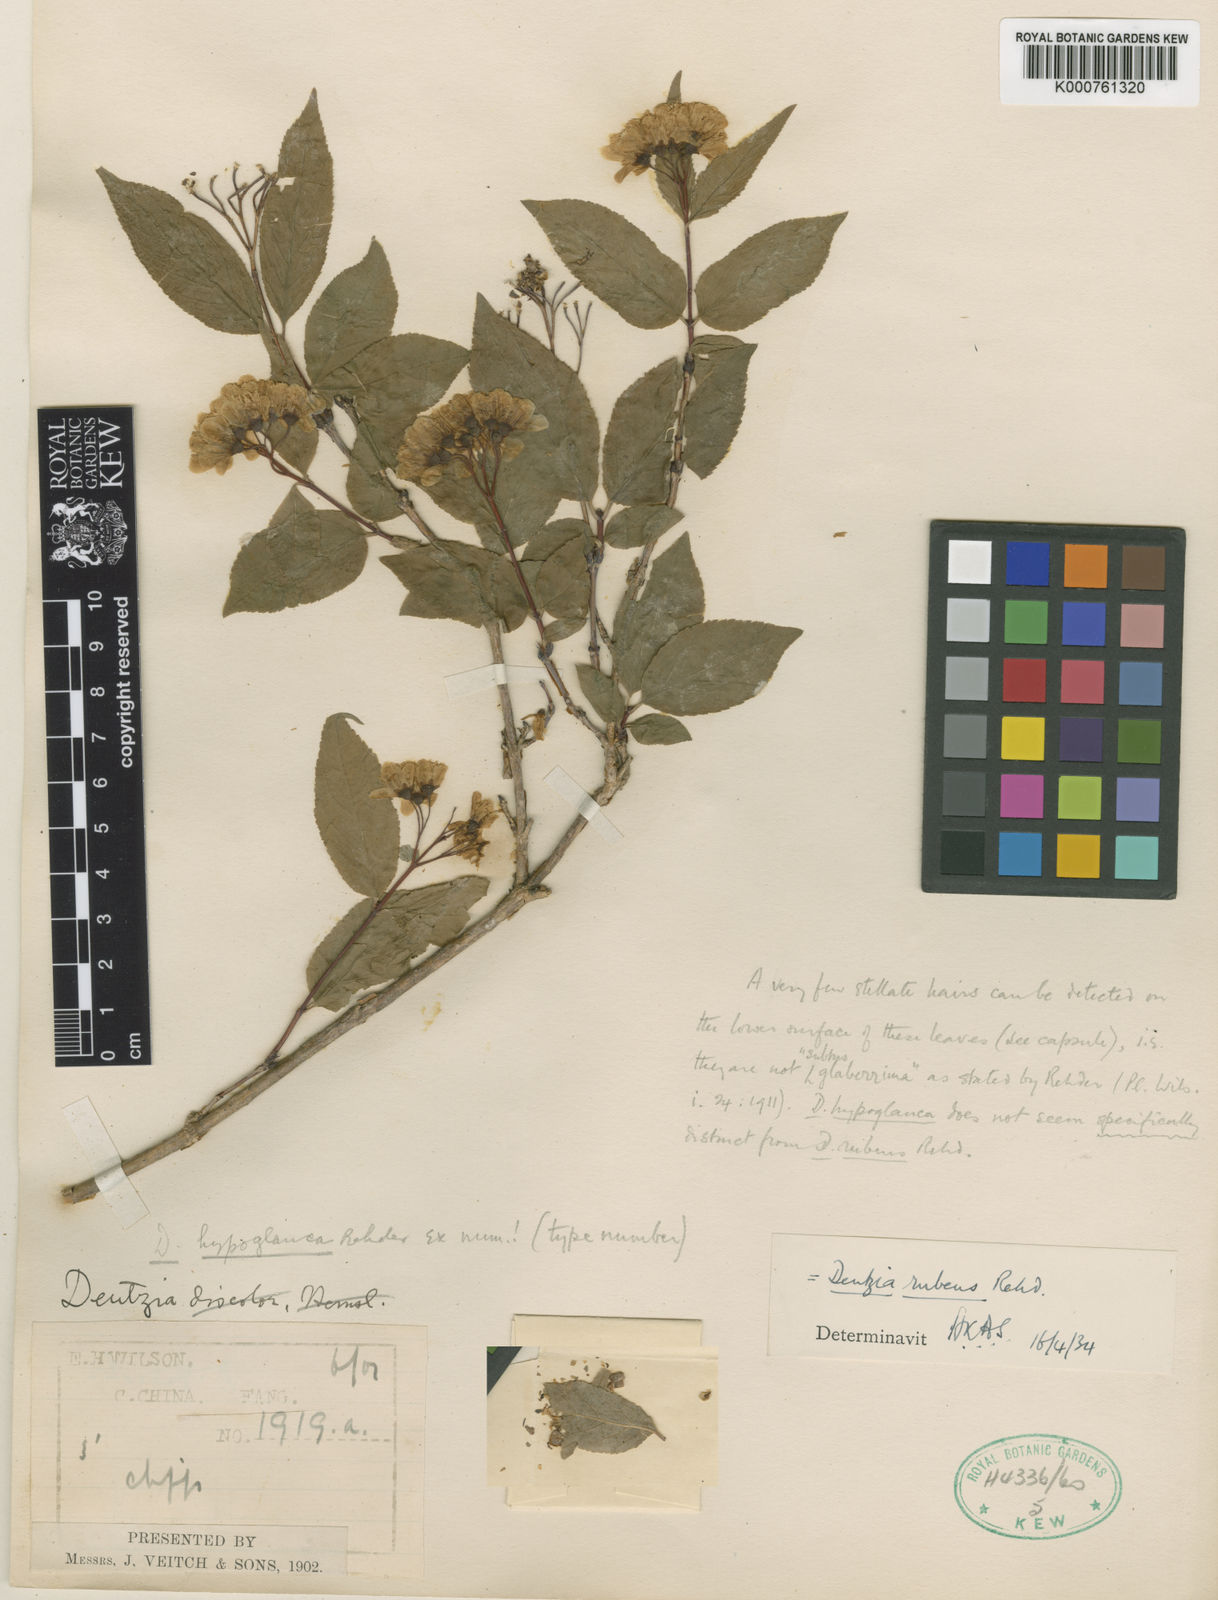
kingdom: Plantae
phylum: Tracheophyta
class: Magnoliopsida
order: Cornales
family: Hydrangeaceae
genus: Deutzia
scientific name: Deutzia rubens
